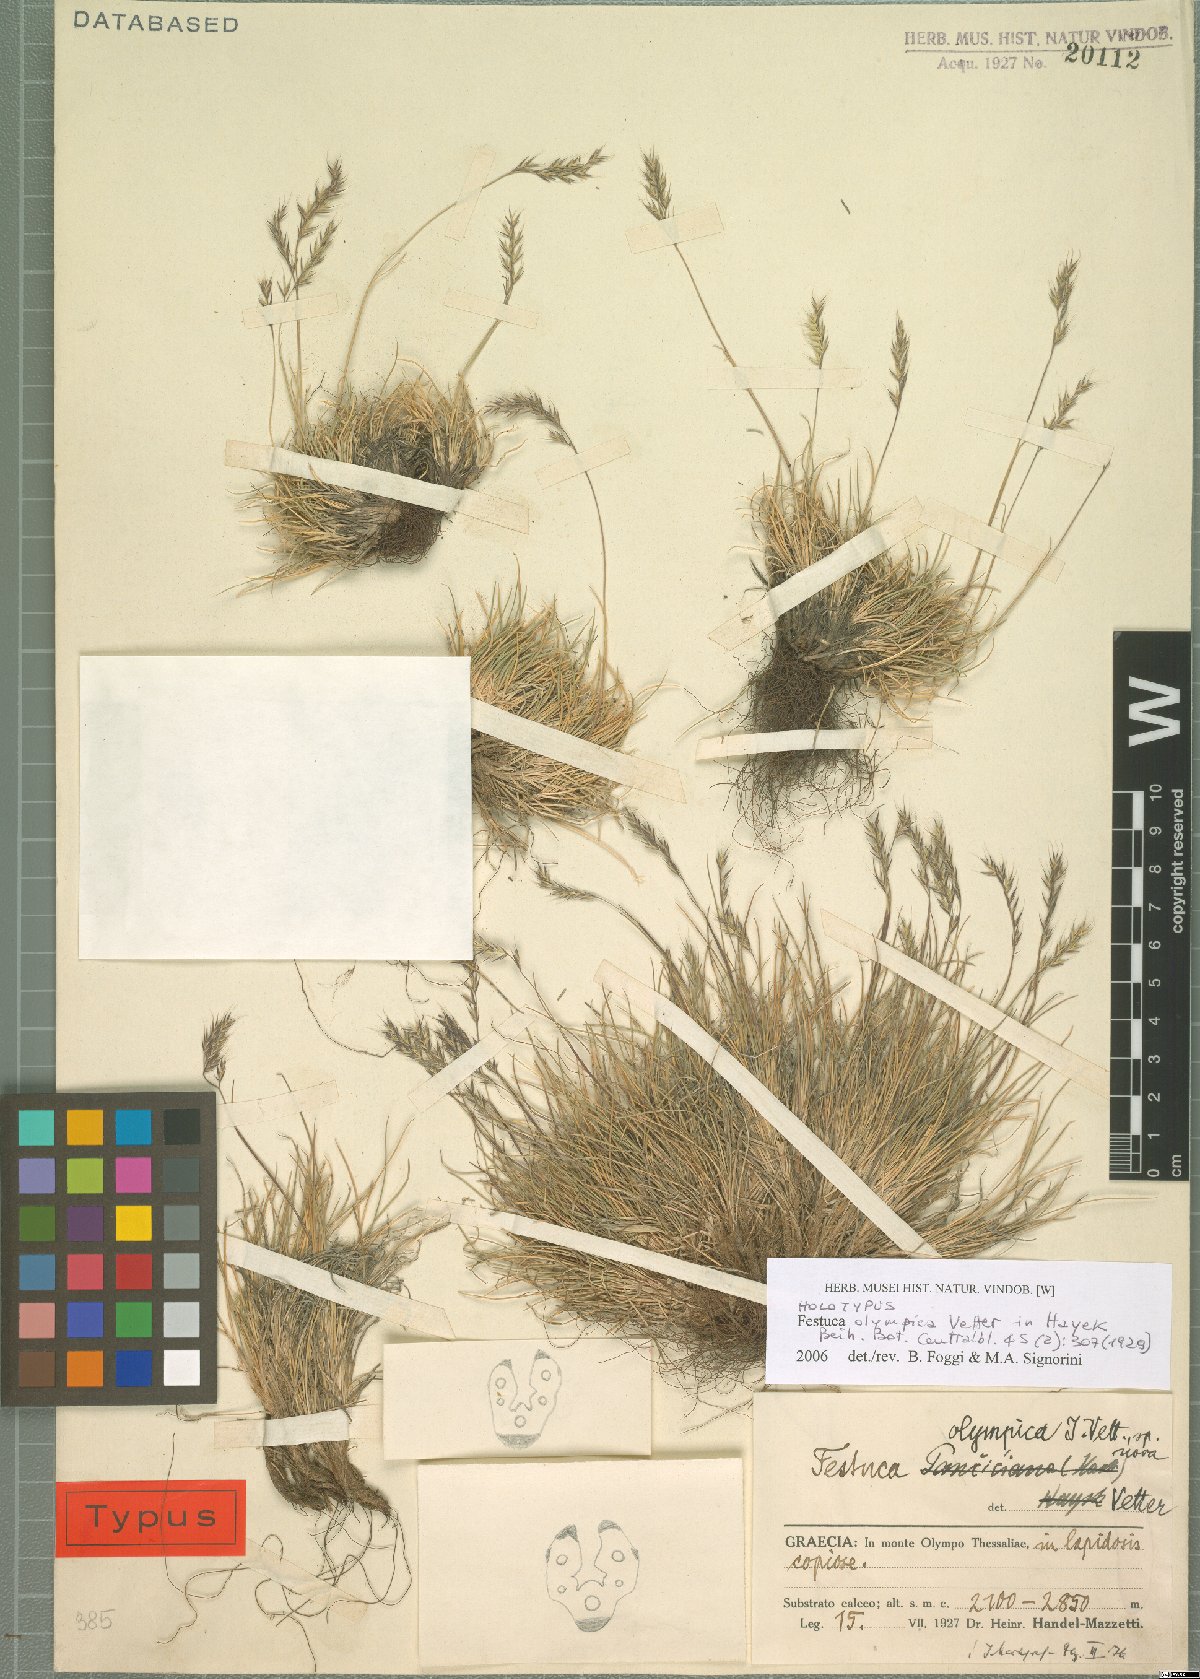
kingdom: Plantae
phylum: Tracheophyta
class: Liliopsida
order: Poales
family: Poaceae
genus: Festuca
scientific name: Festuca olympica
